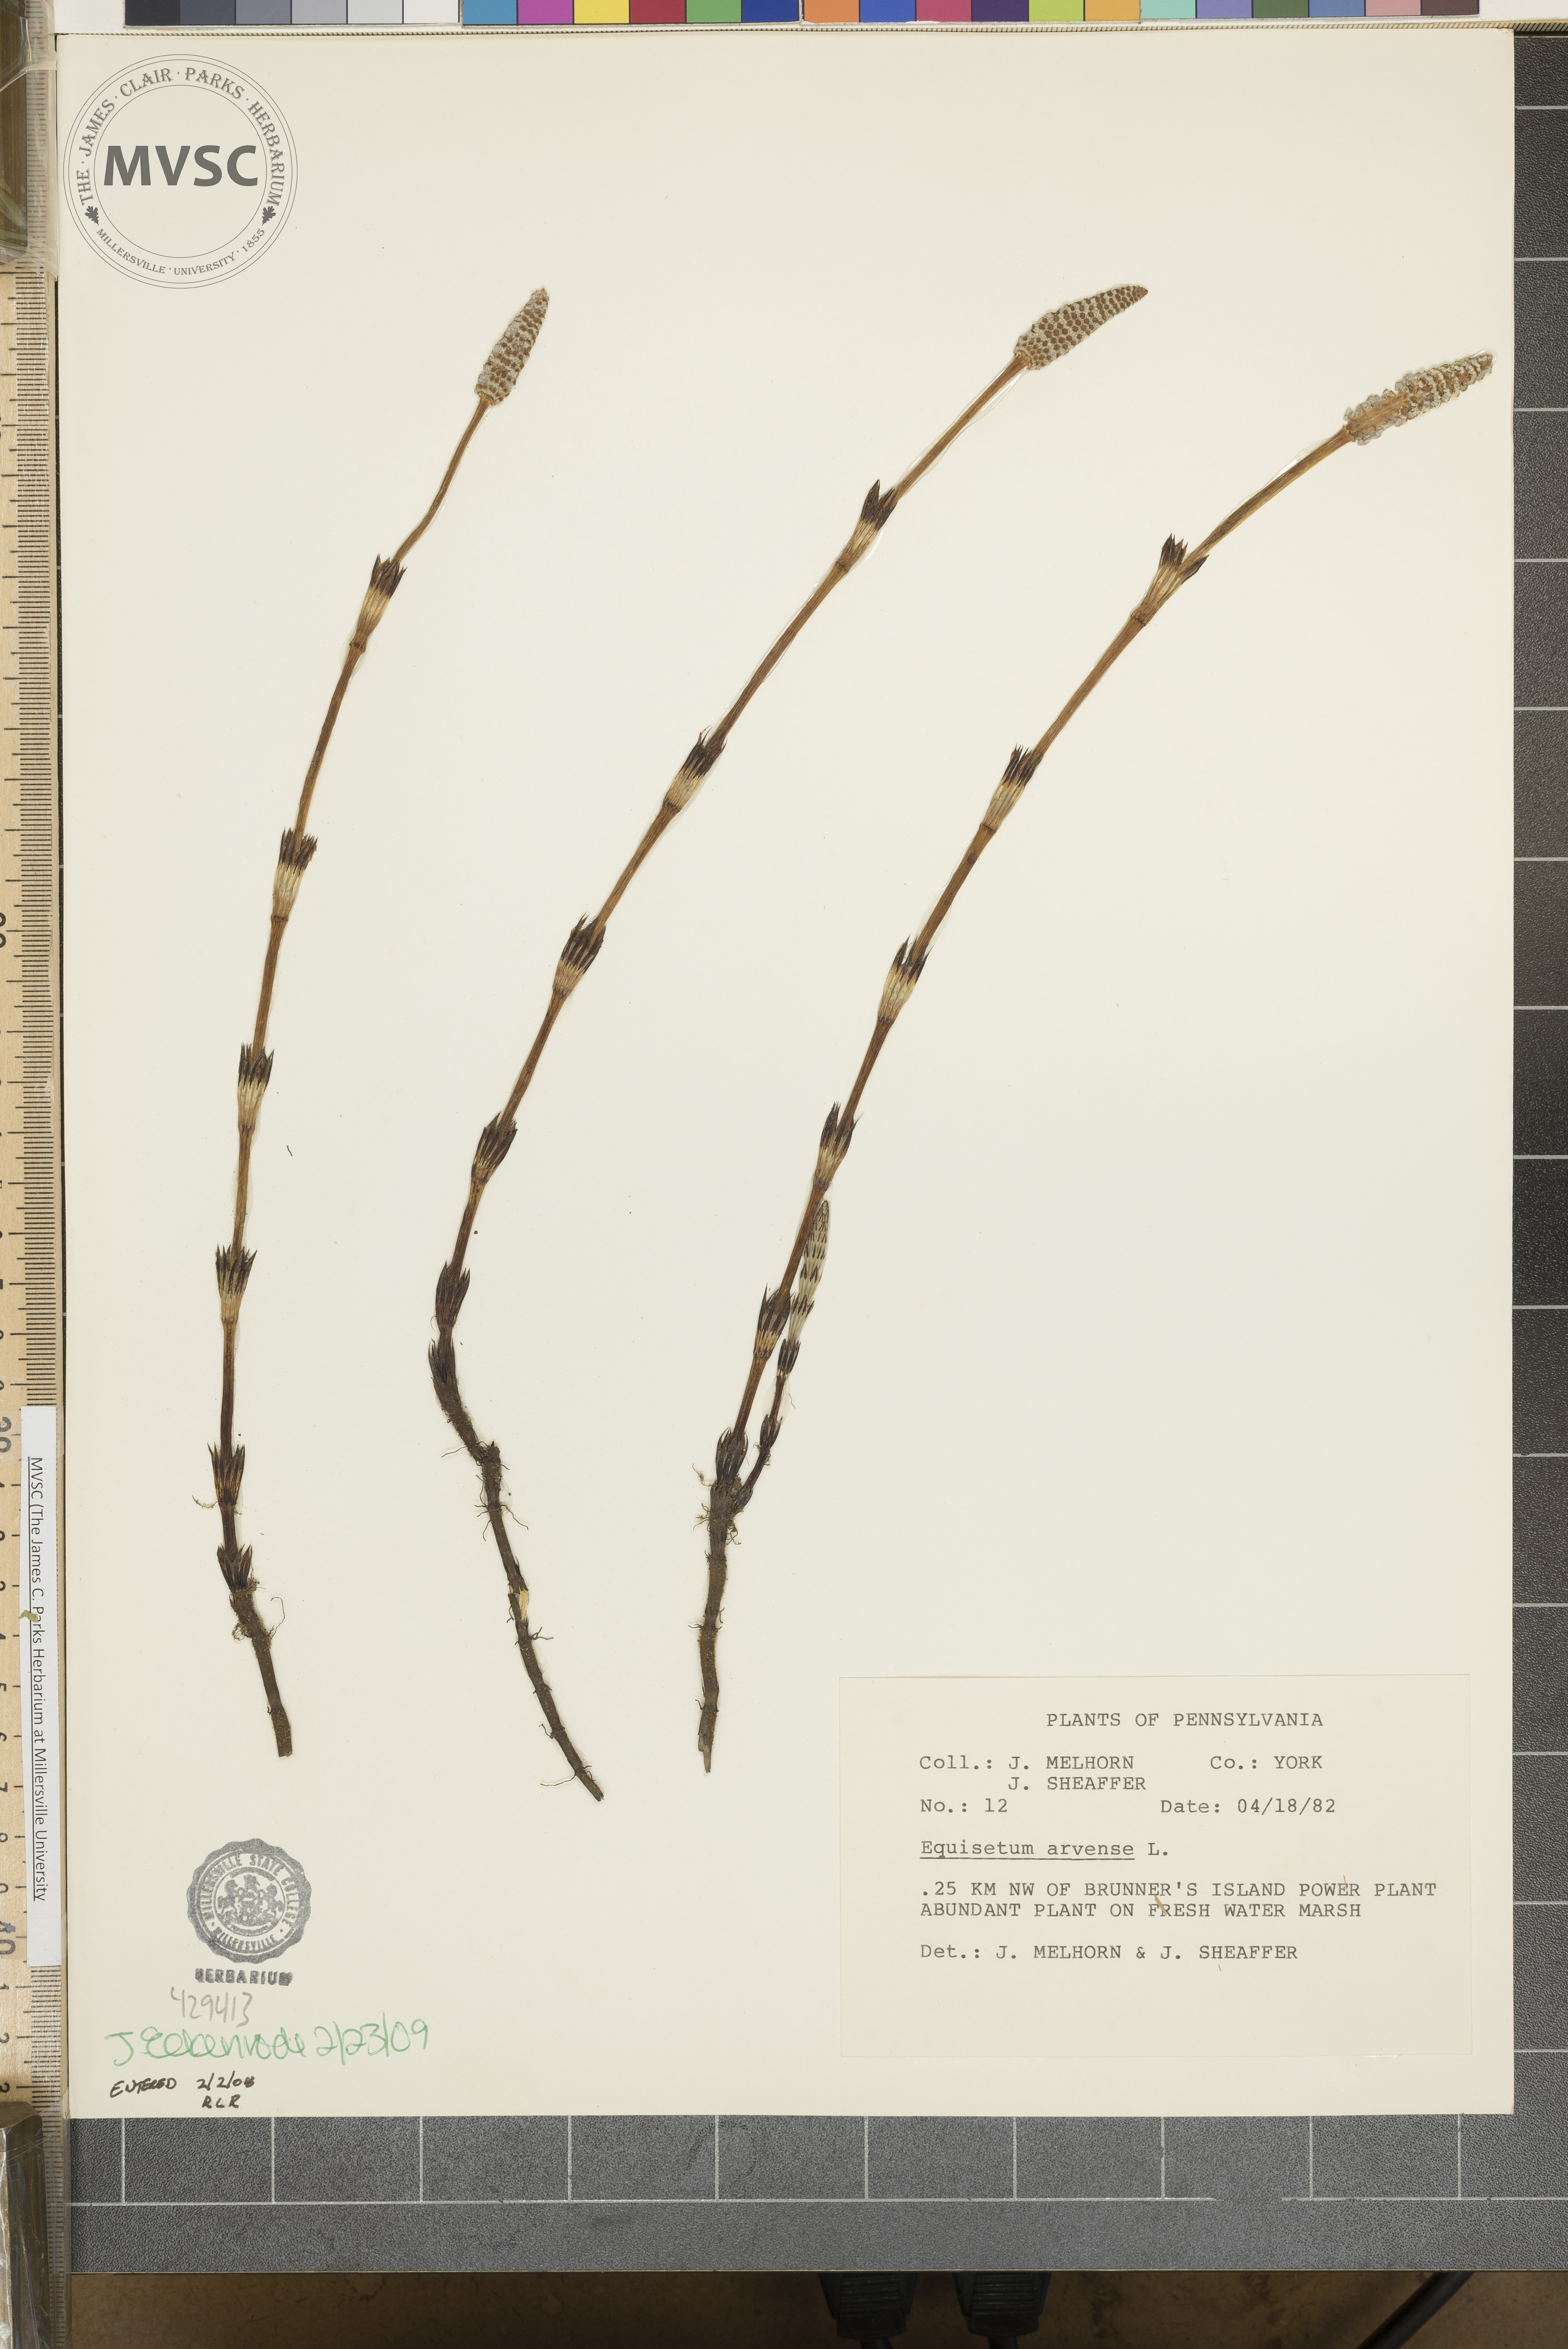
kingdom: Plantae
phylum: Tracheophyta
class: Polypodiopsida
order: Equisetales
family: Equisetaceae
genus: Equisetum
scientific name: Equisetum arvense
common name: Field horsetail
